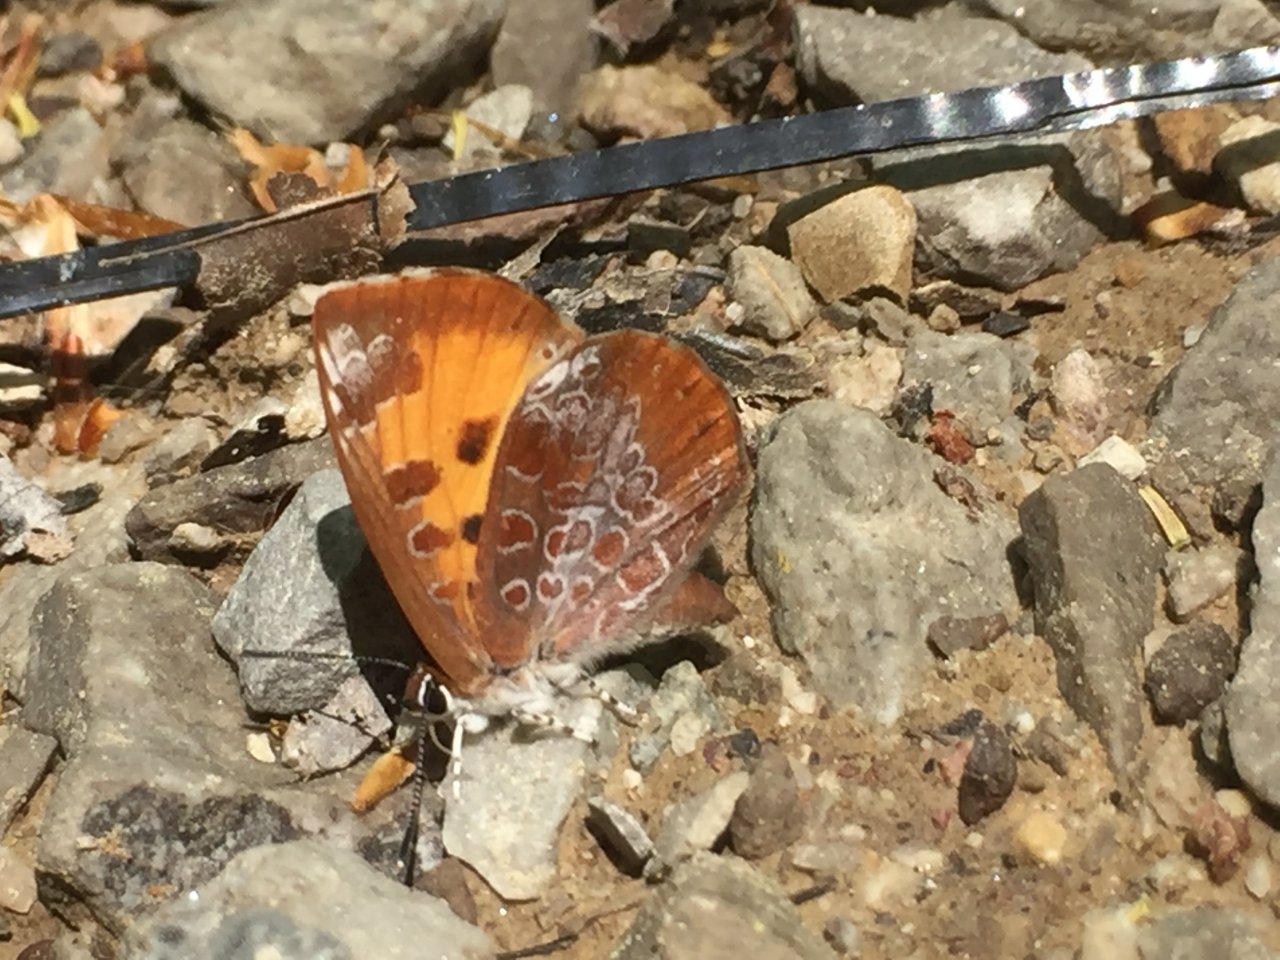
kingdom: Animalia
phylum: Arthropoda
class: Insecta
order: Lepidoptera
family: Lycaenidae
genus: Feniseca
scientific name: Feniseca tarquinius
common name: Harvester
